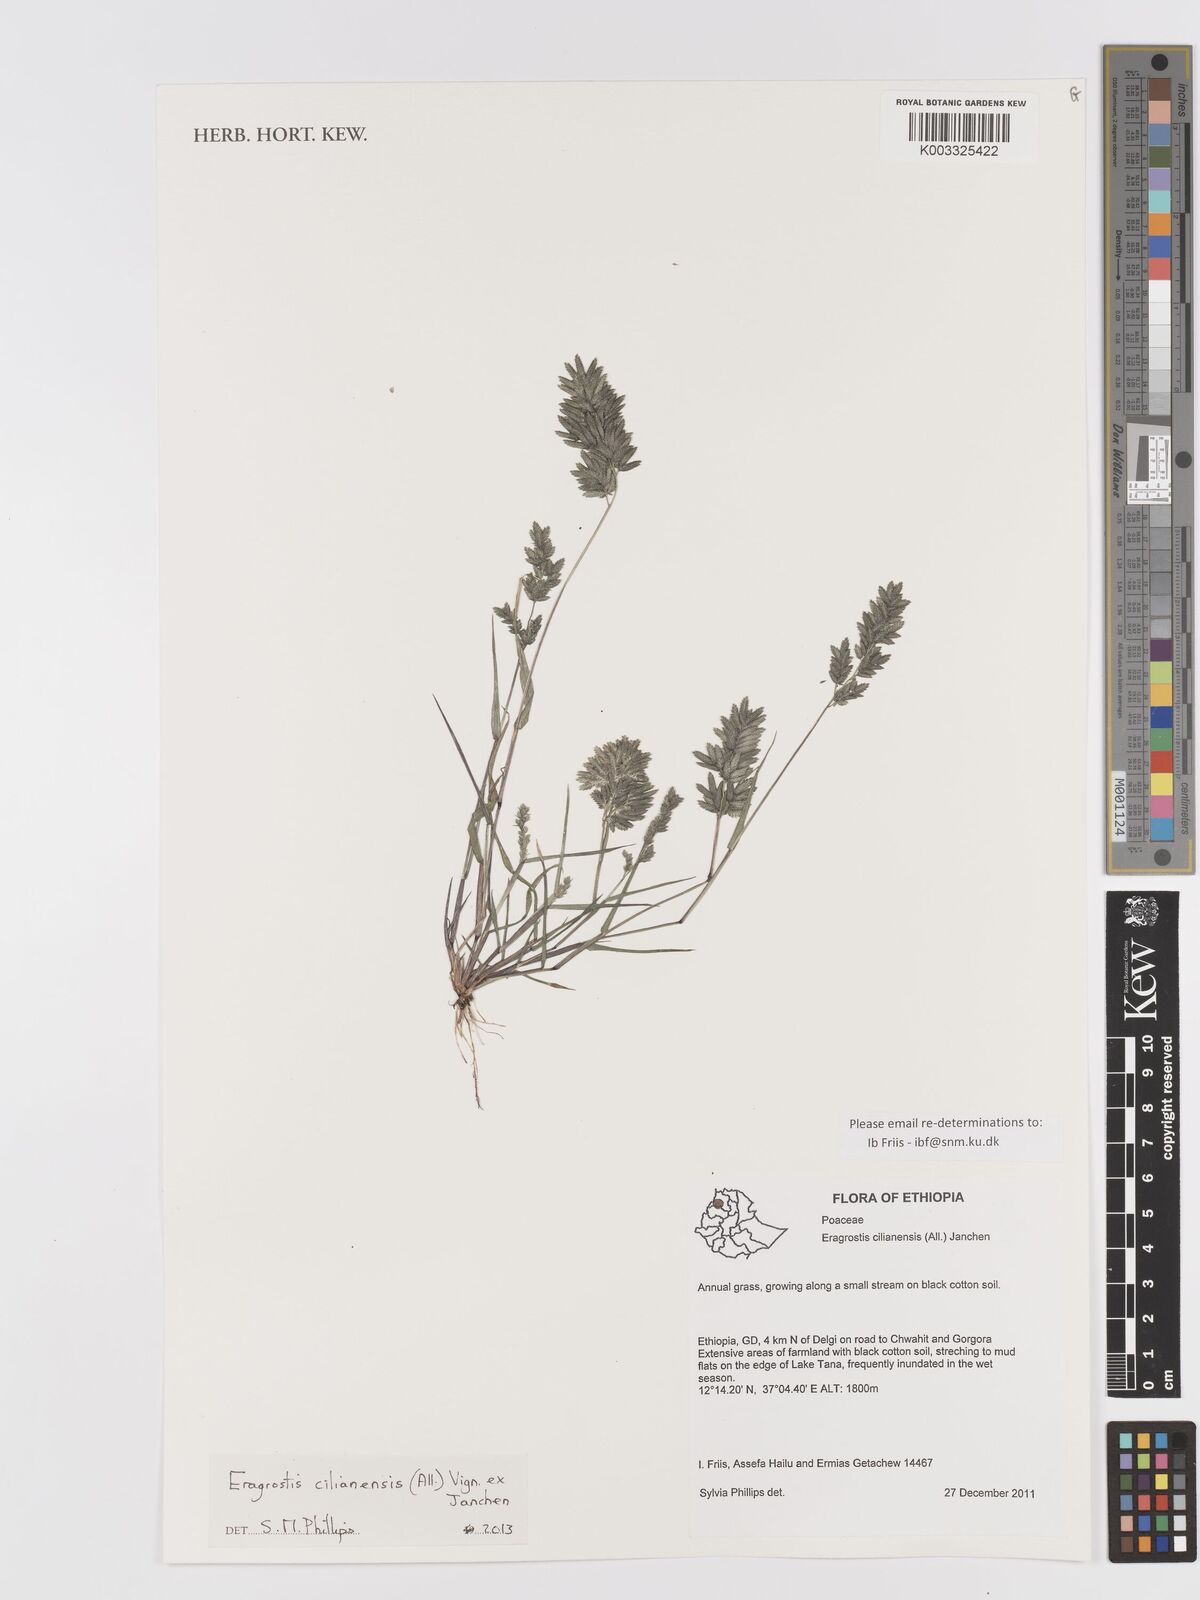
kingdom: Plantae
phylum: Tracheophyta
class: Liliopsida
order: Poales
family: Poaceae
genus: Eragrostis
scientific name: Eragrostis cilianensis
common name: Stinkgrass
